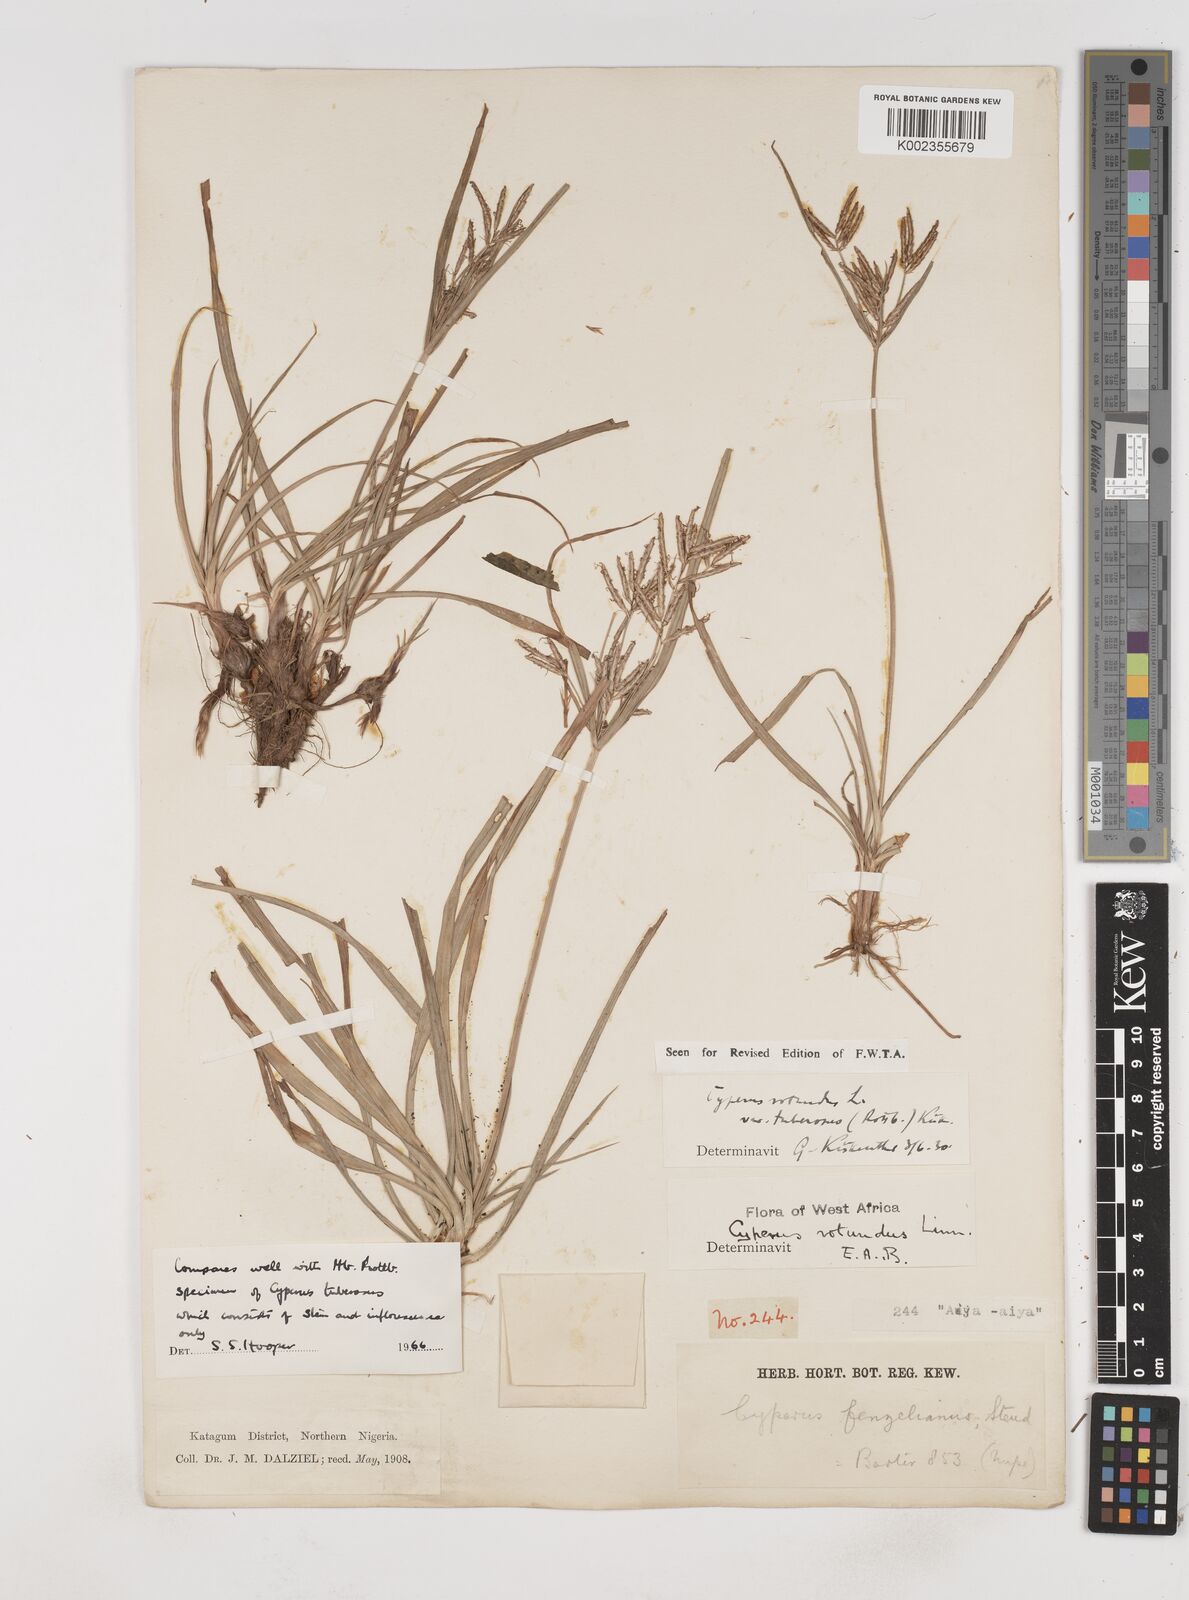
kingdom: Plantae
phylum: Tracheophyta
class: Liliopsida
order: Poales
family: Cyperaceae
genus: Cyperus
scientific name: Cyperus tuberosus
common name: Nut grass
